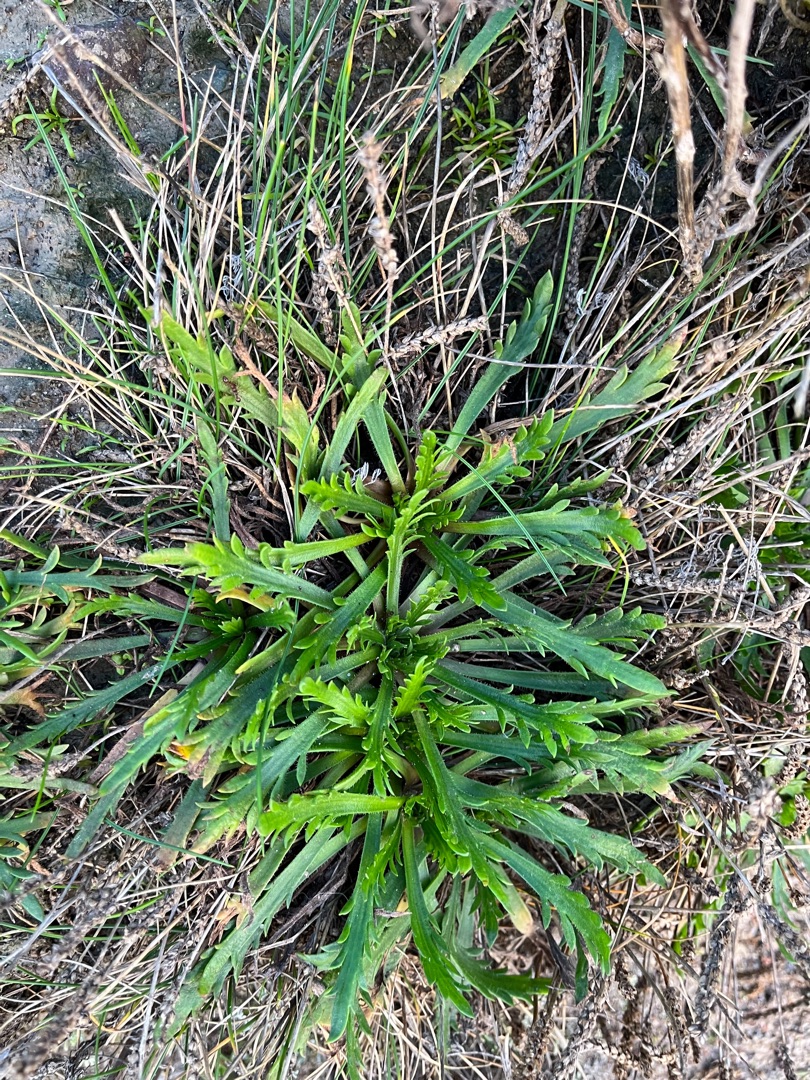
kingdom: Plantae
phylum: Tracheophyta
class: Magnoliopsida
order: Lamiales
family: Plantaginaceae
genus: Plantago
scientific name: Plantago coronopus
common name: Fliget vejbred
